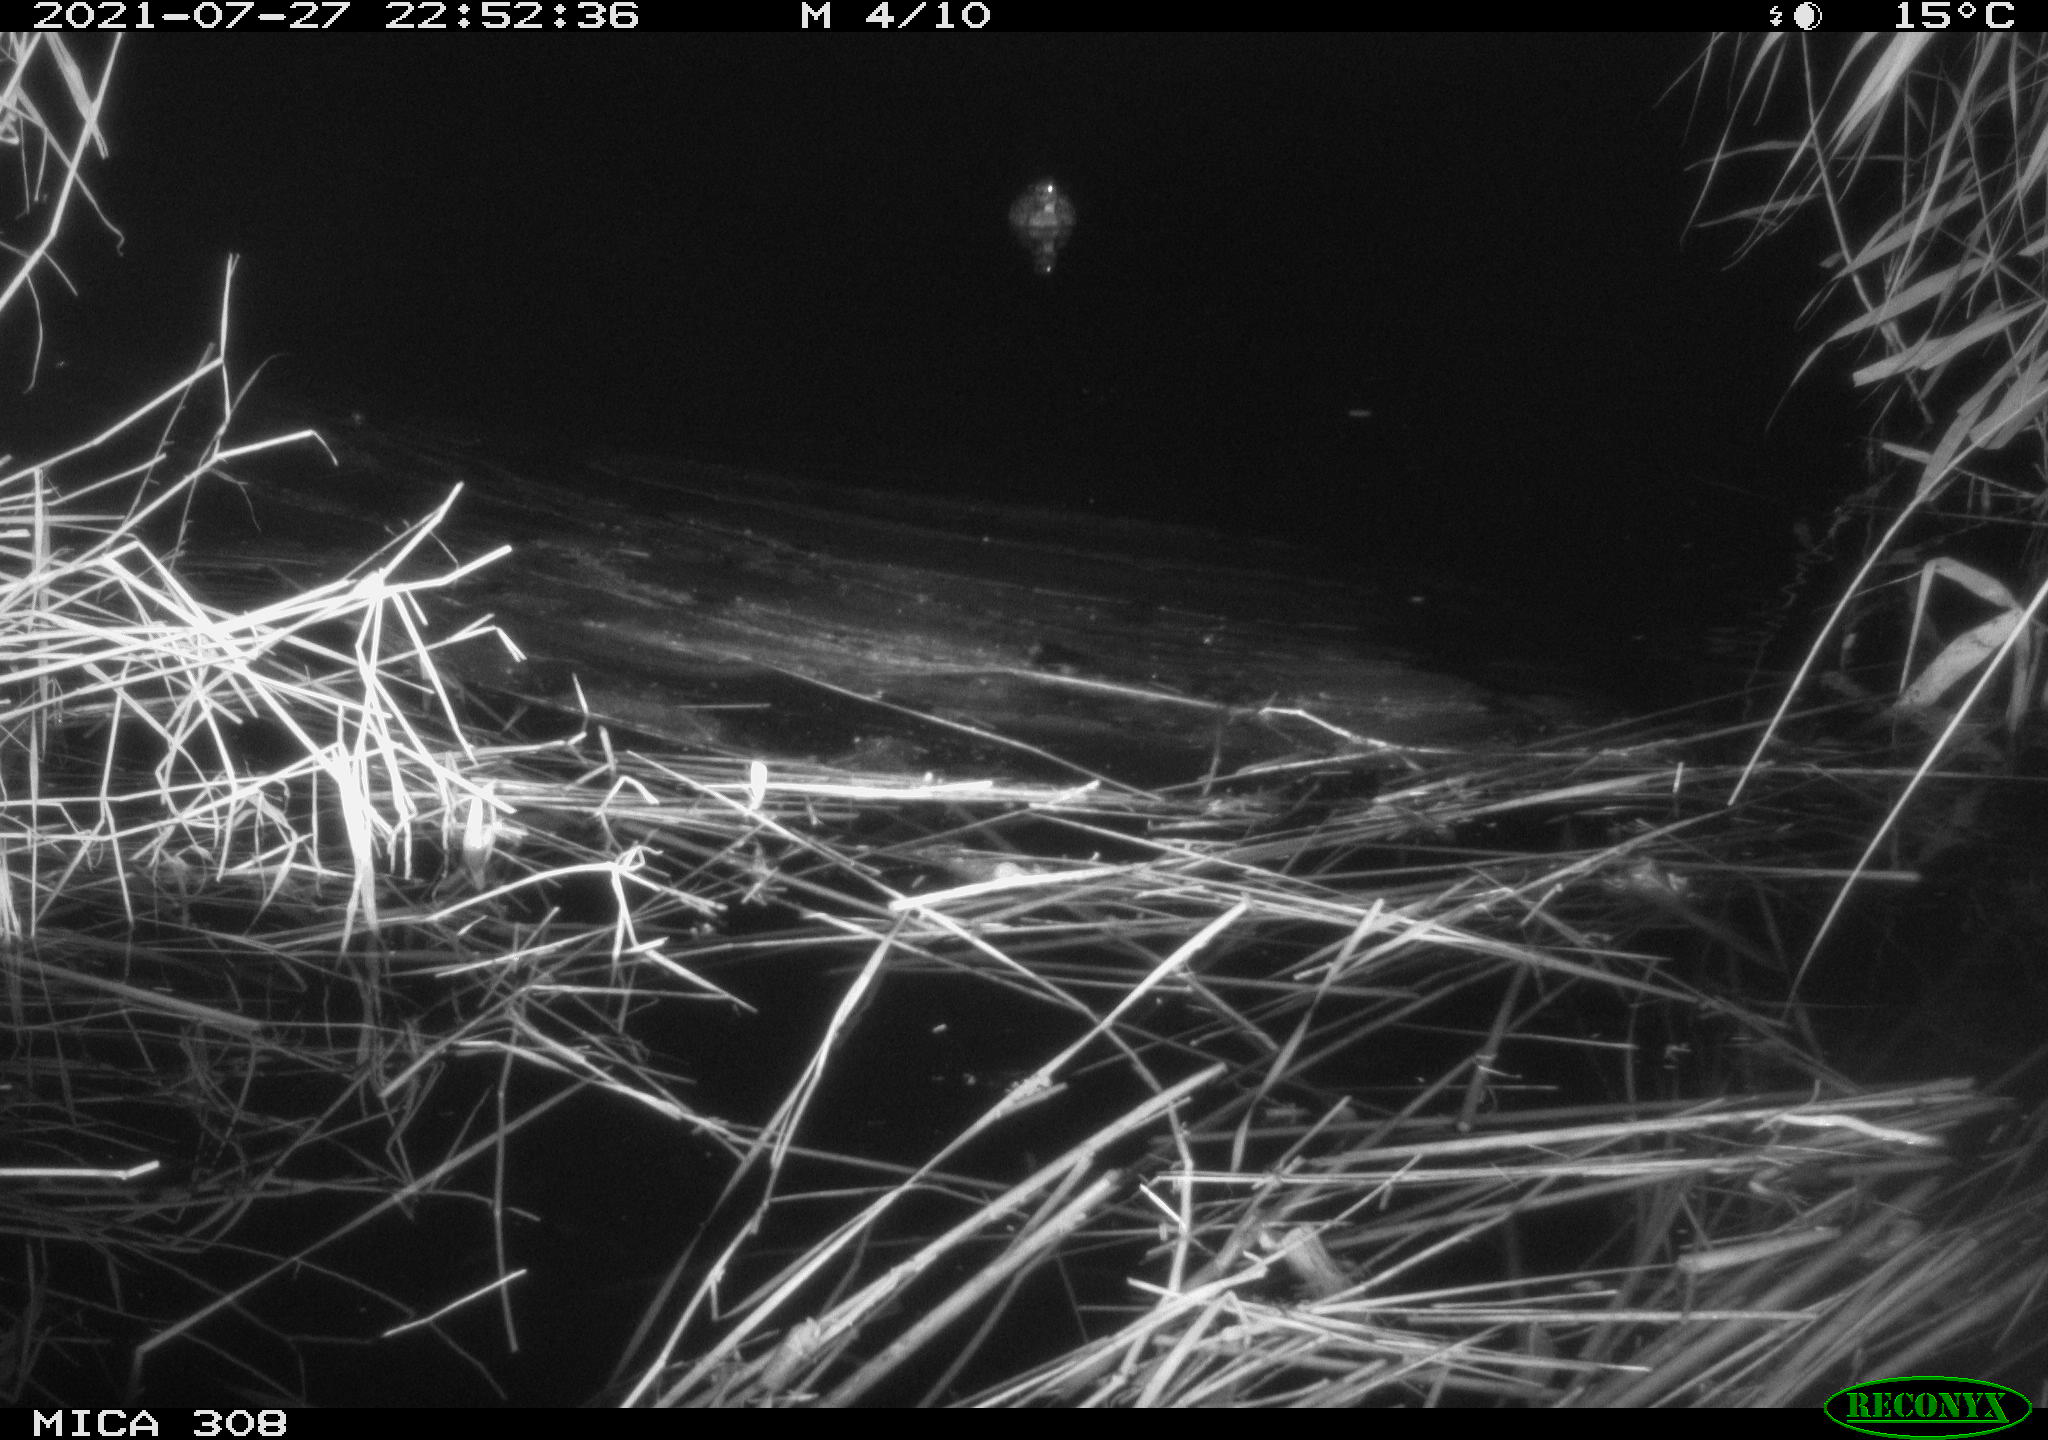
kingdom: Animalia
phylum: Chordata
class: Aves
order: Anseriformes
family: Anatidae
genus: Anas
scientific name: Anas platyrhynchos
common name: Mallard
